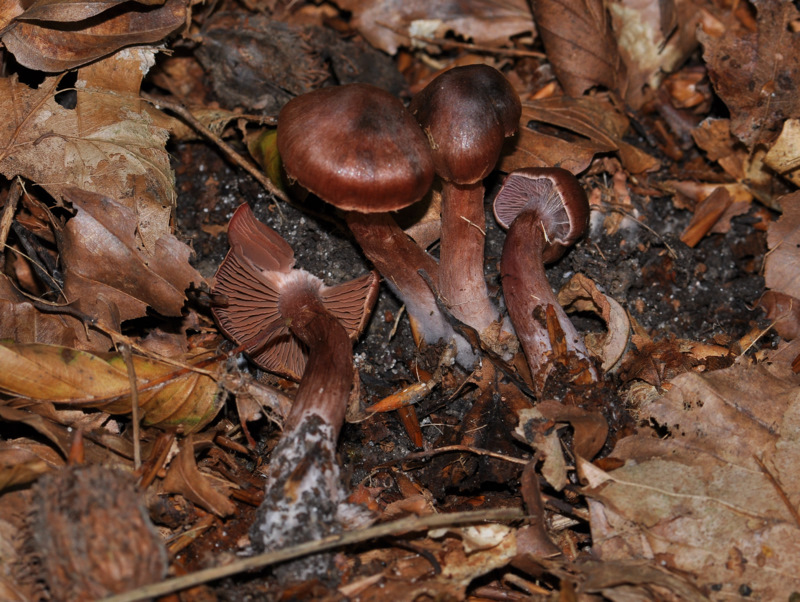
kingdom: Fungi
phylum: Basidiomycota
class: Agaricomycetes
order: Agaricales
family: Cortinariaceae
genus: Cortinarius
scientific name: Cortinarius danicus
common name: dansk slørhat
